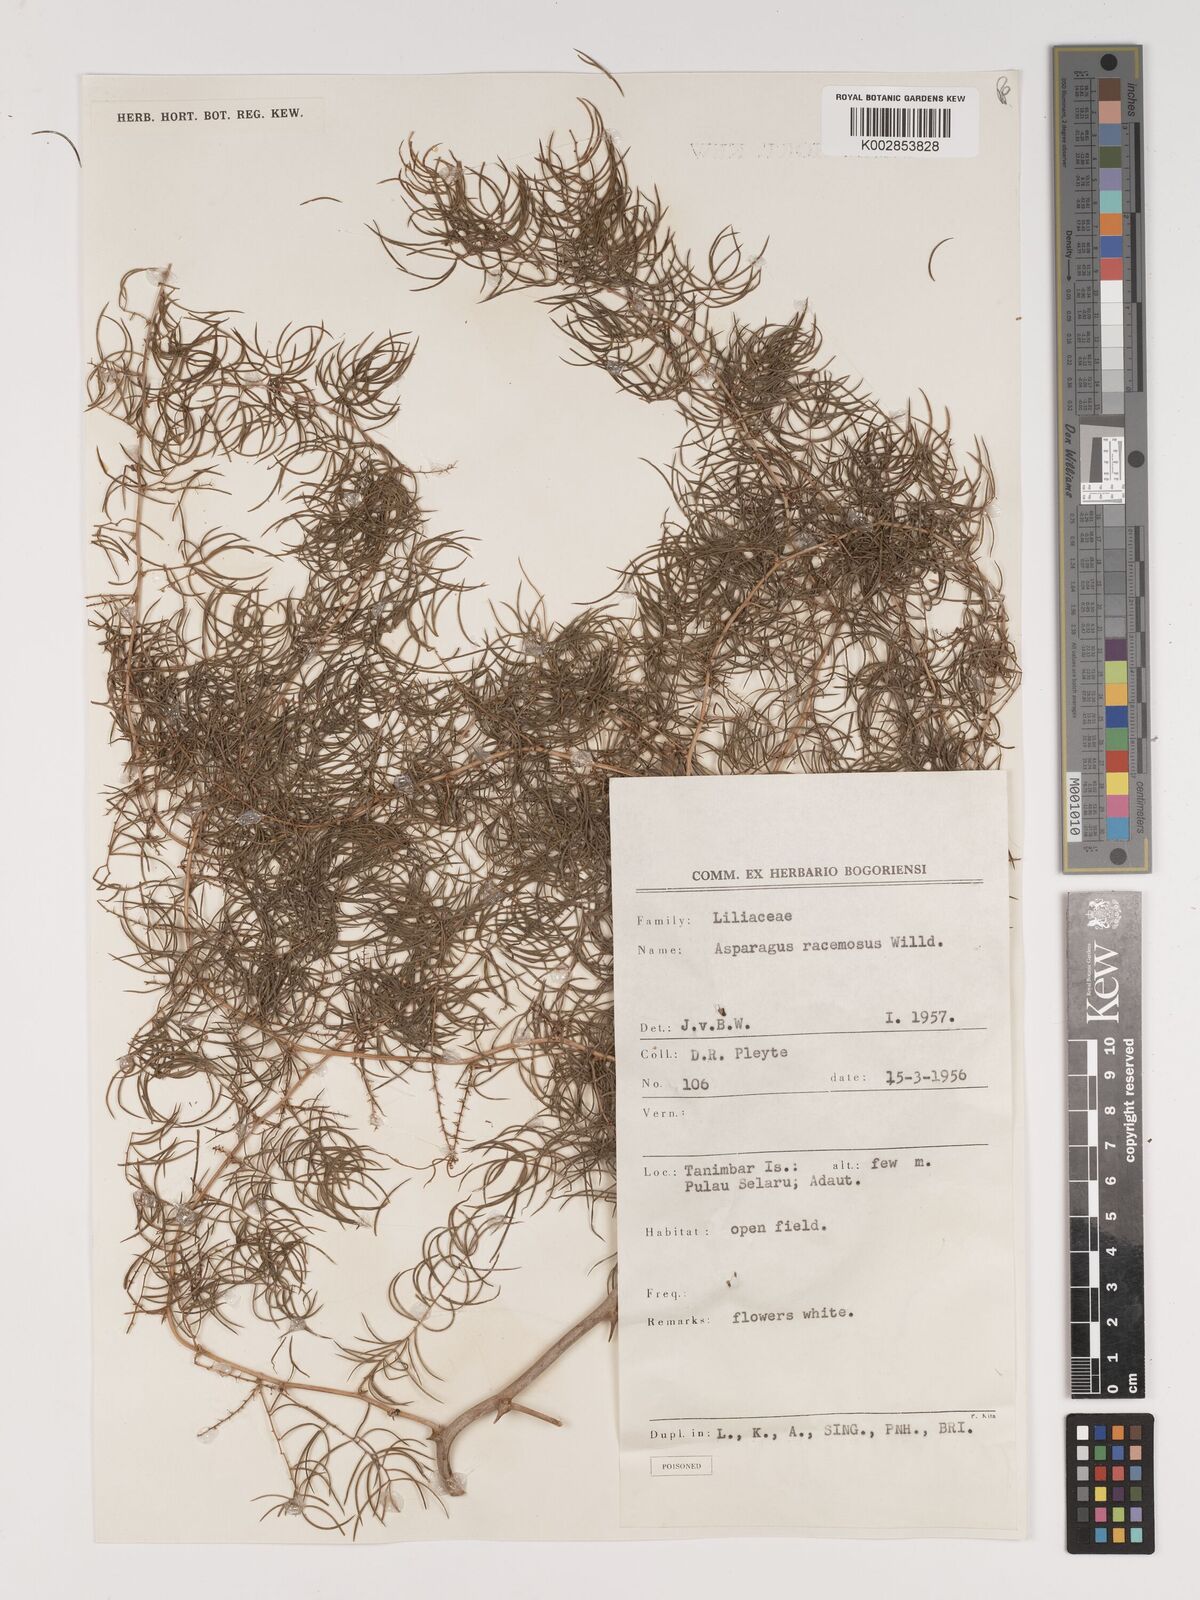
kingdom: Plantae
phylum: Tracheophyta
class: Liliopsida
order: Asparagales
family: Asparagaceae
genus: Asparagus
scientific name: Asparagus racemosus
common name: Asparagus-fern
